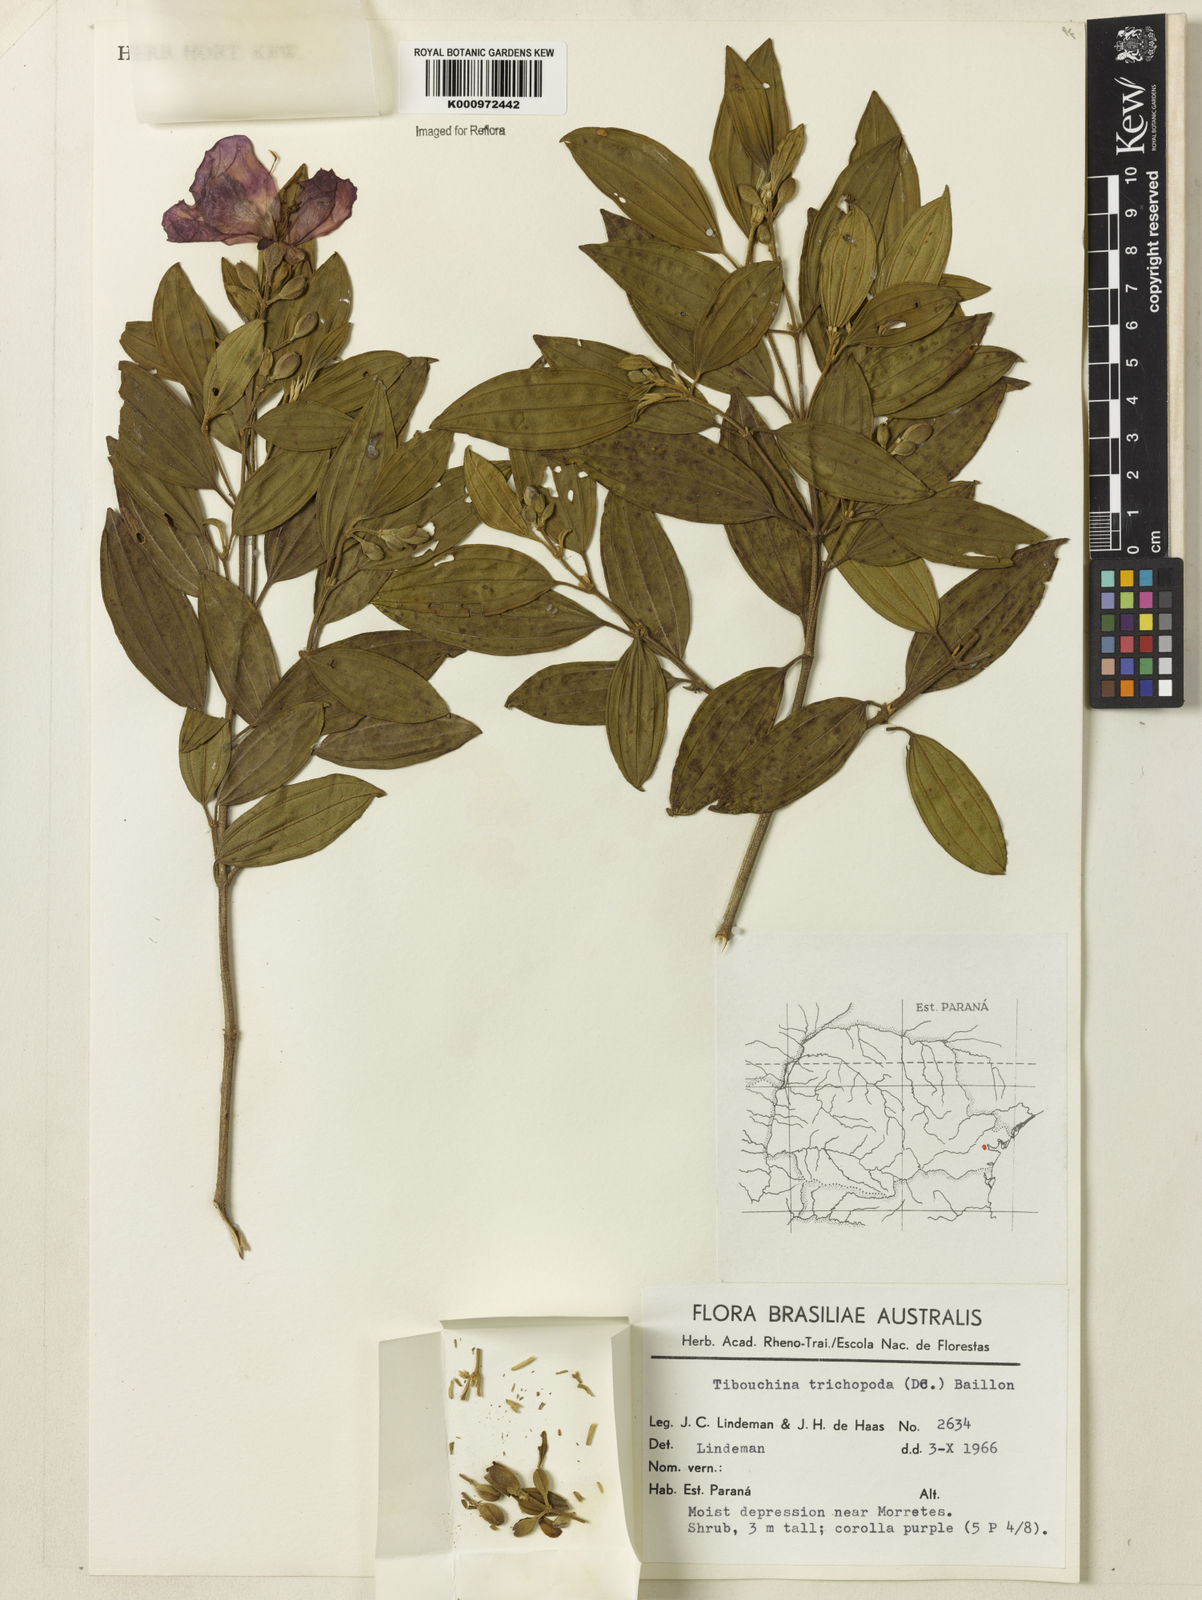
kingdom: Plantae
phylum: Tracheophyta
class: Magnoliopsida
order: Myrtales
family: Melastomataceae
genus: Pleroma
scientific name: Pleroma trichopodum
